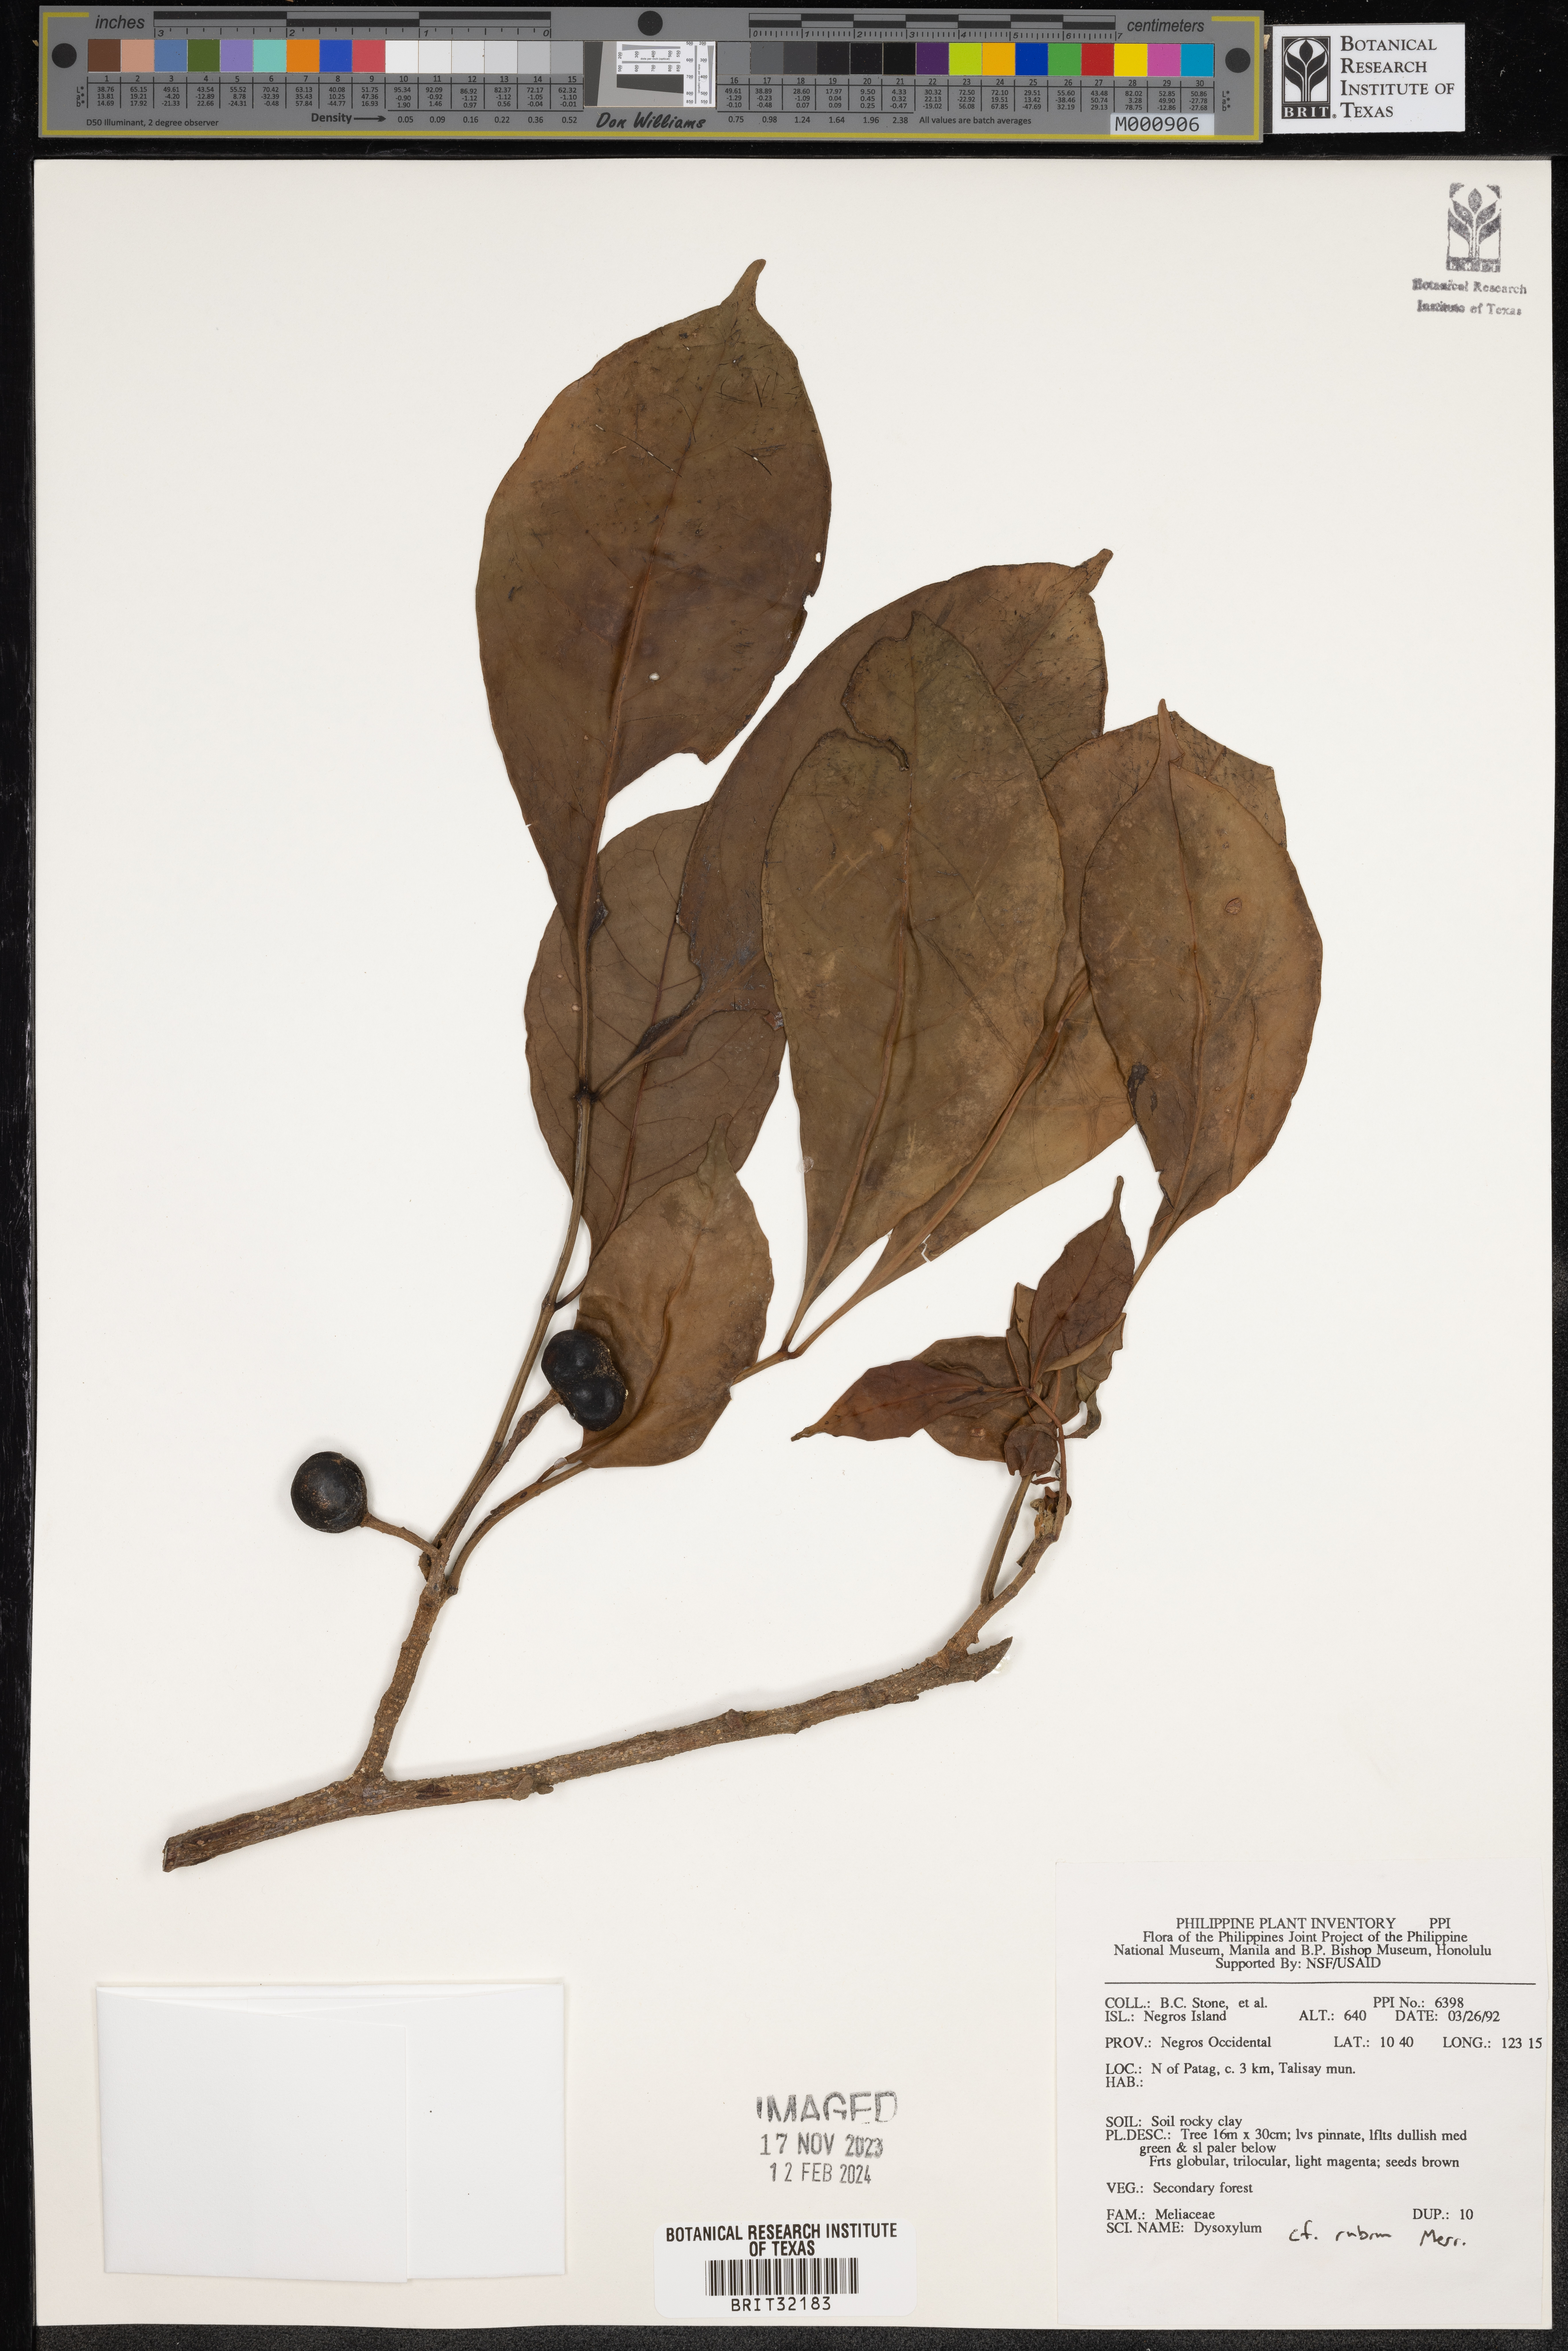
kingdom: Plantae
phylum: Tracheophyta
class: Magnoliopsida
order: Sapindales
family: Meliaceae
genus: Dysoxylum
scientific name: Dysoxylum
